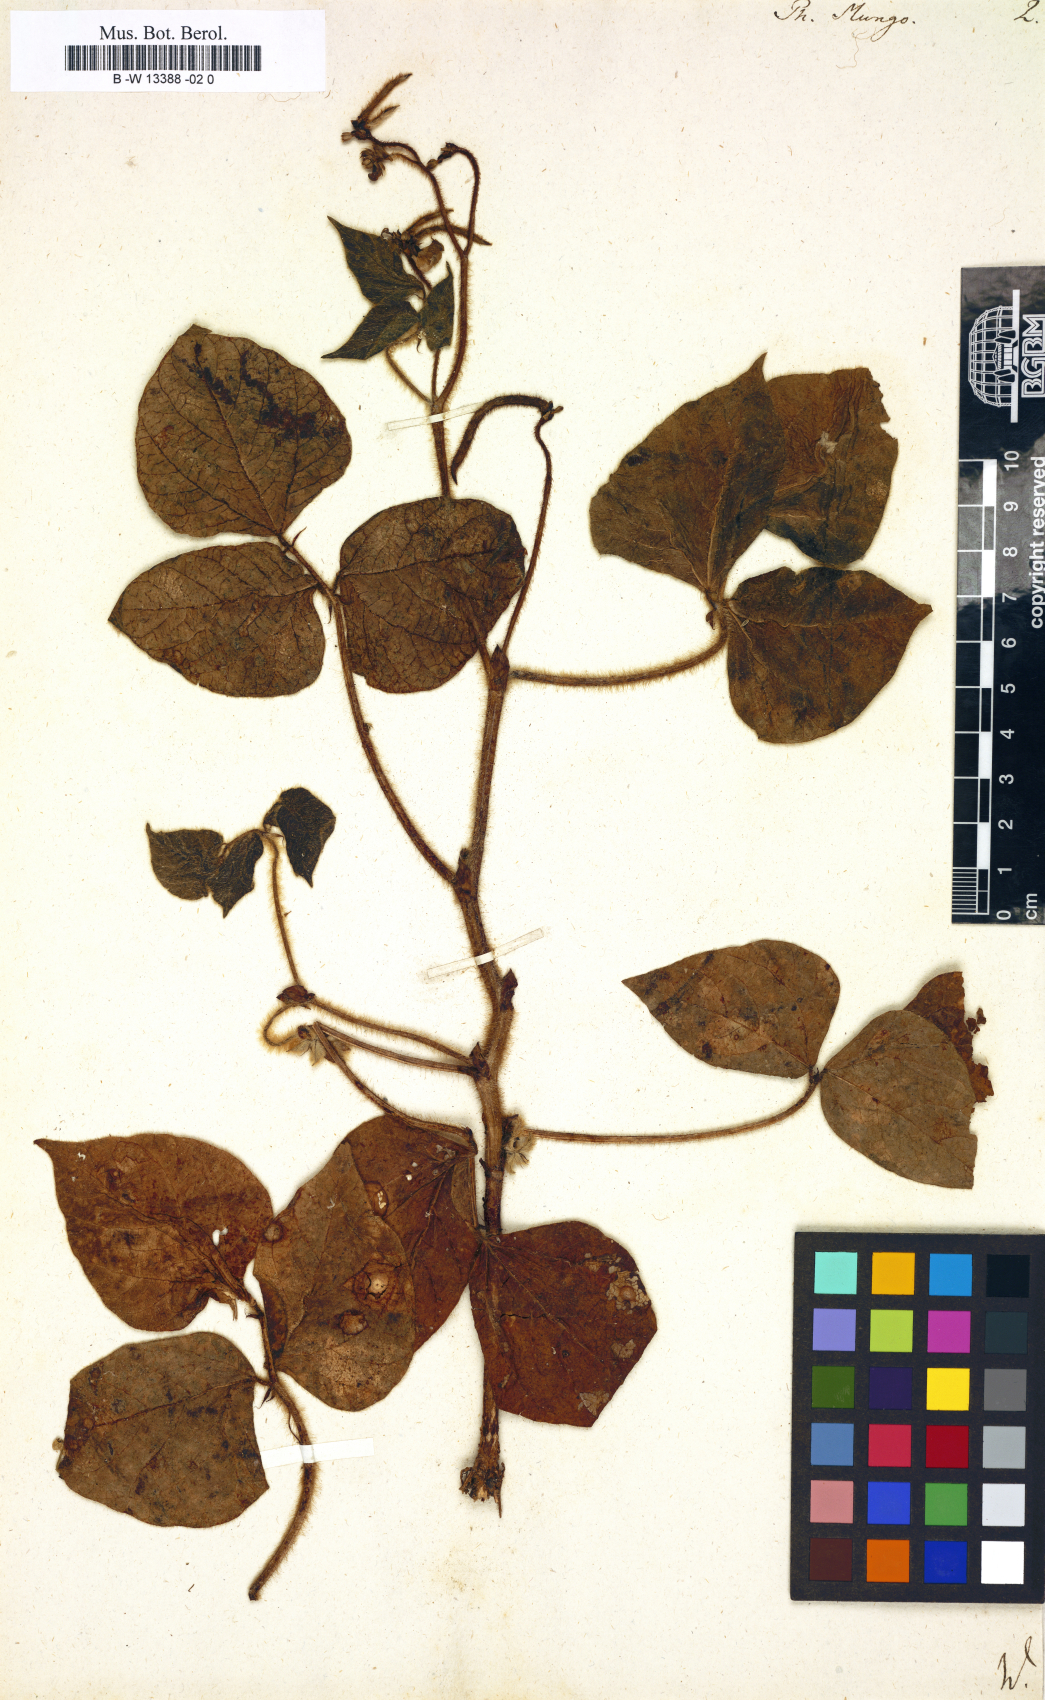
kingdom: Plantae
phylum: Tracheophyta
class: Magnoliopsida
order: Fabales
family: Fabaceae
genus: Phaseolus
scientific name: Phaseolus mungo
